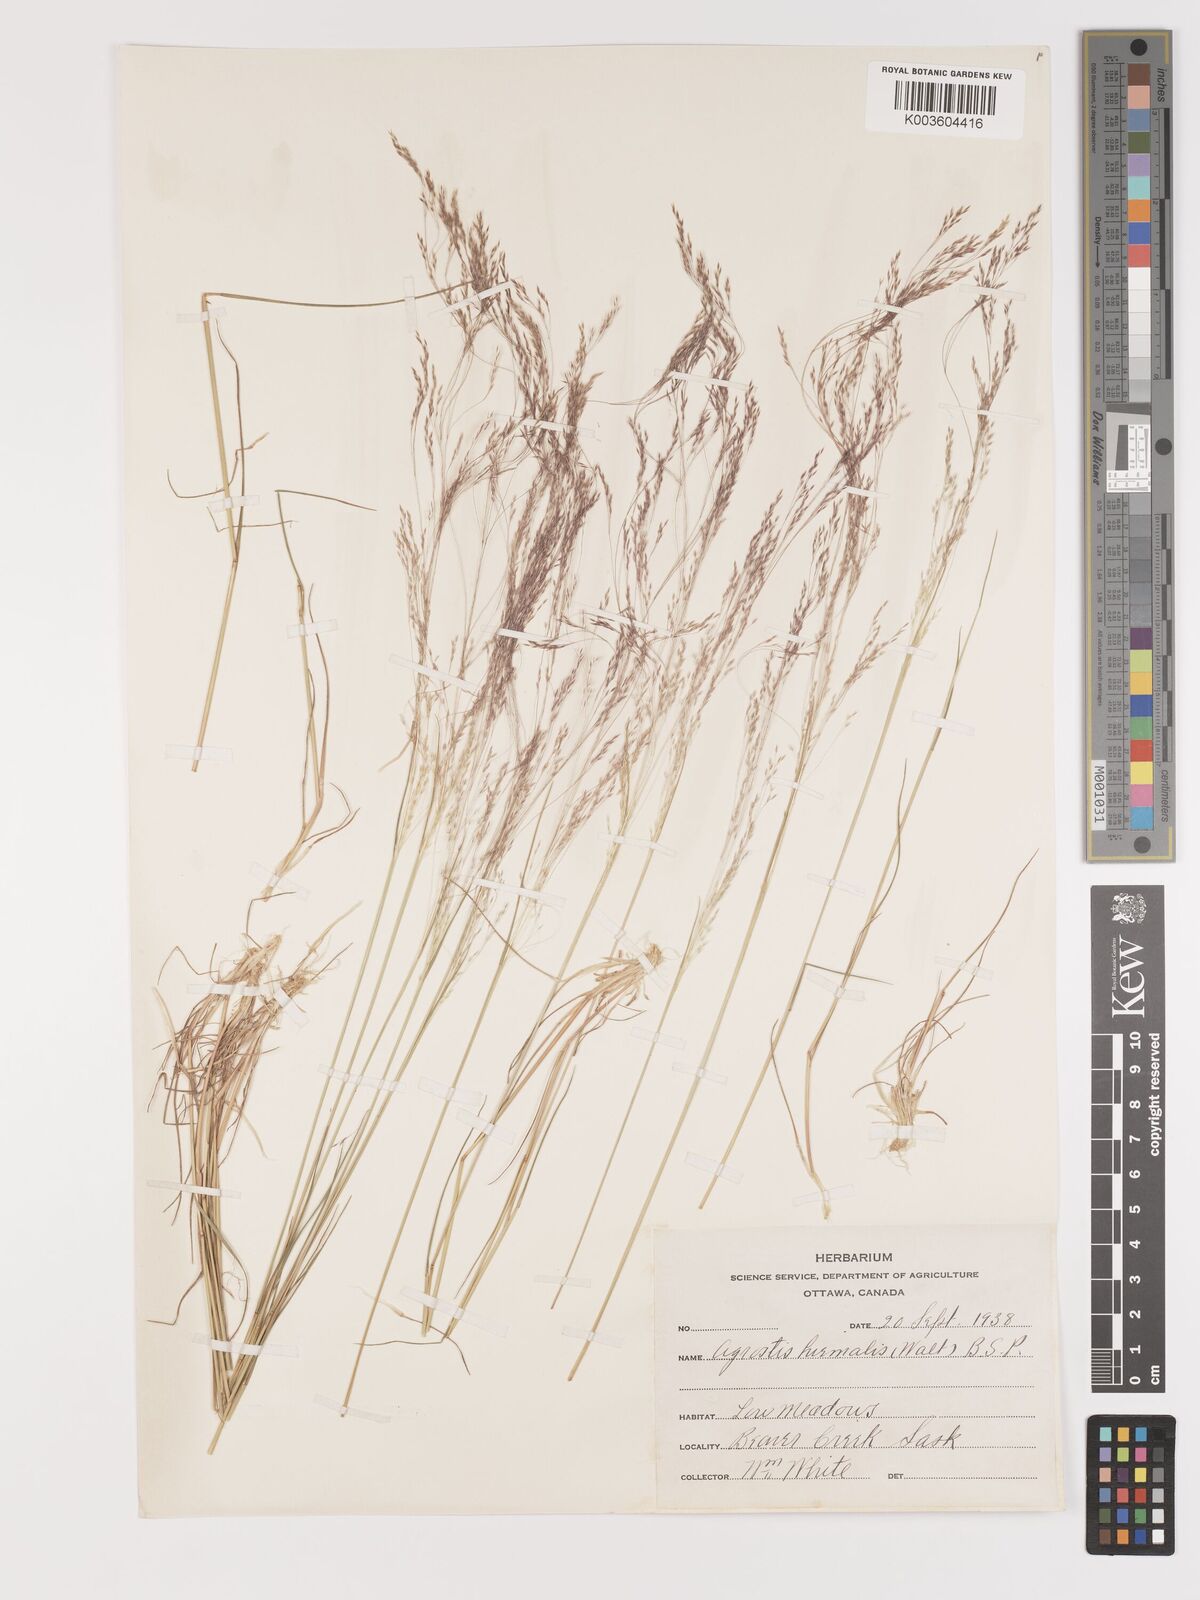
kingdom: Plantae
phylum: Tracheophyta
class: Liliopsida
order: Poales
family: Poaceae
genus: Agrostis
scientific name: Agrostis hyemalis
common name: Small bent
